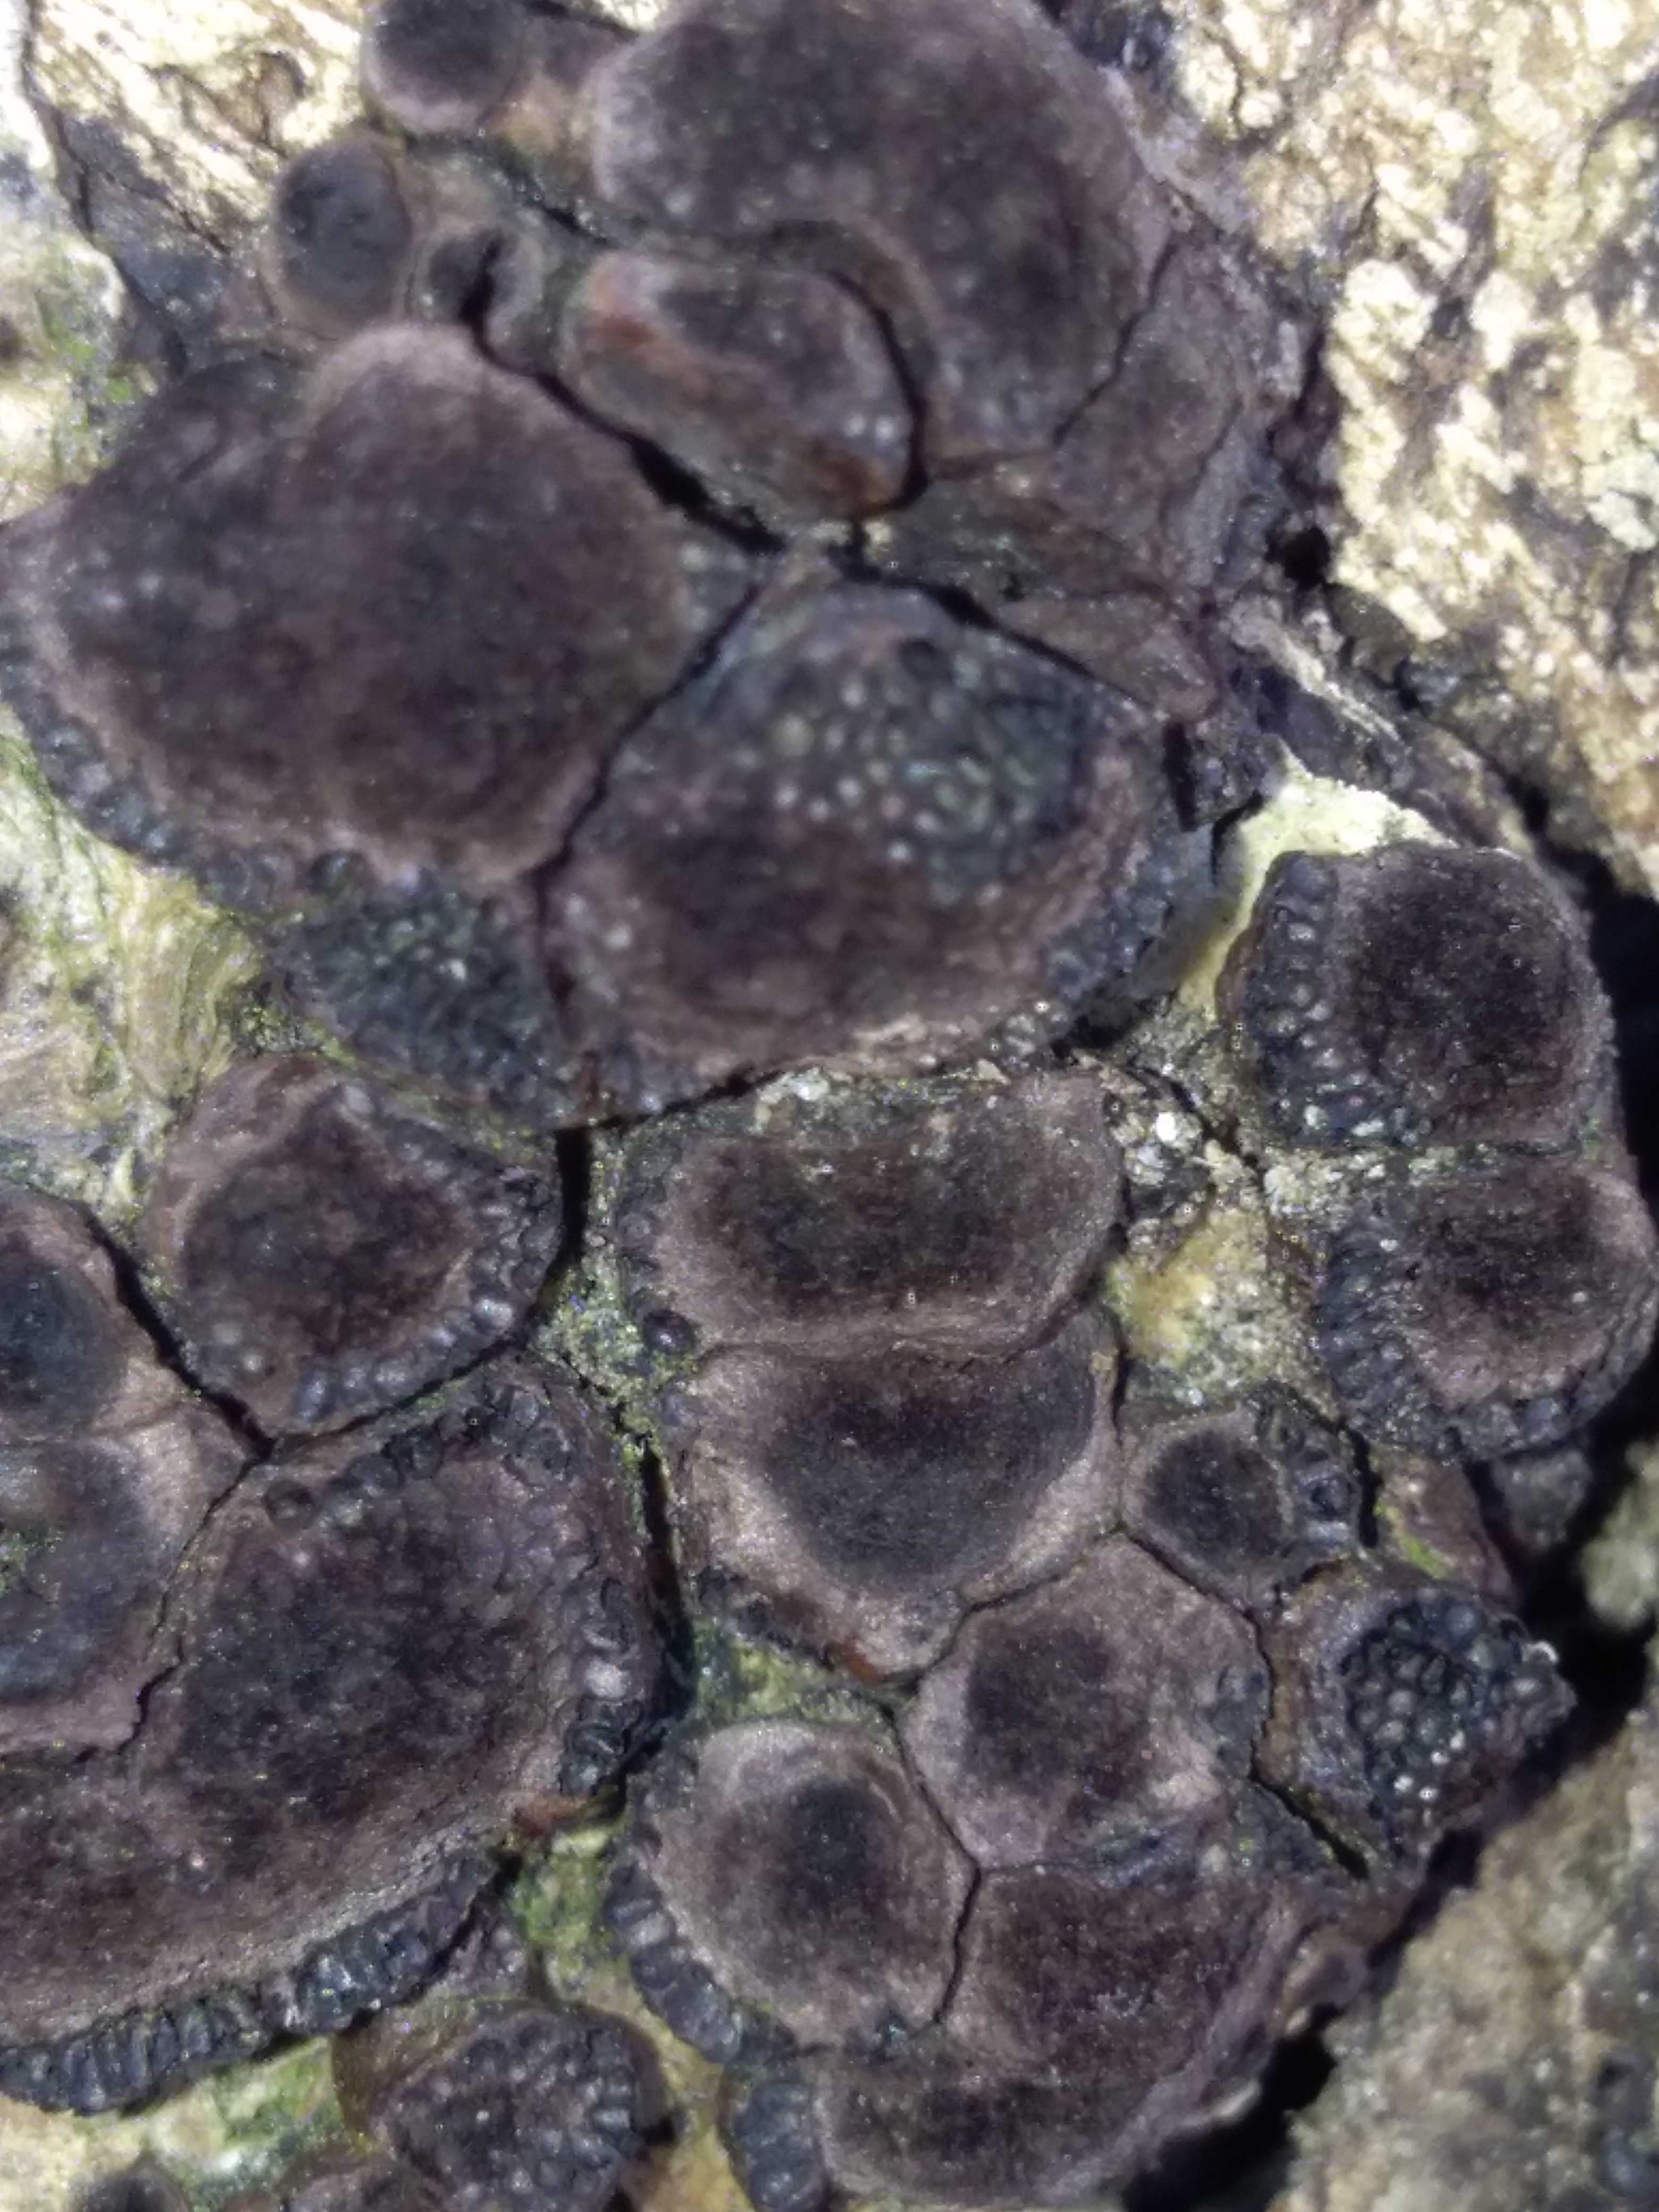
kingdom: Fungi
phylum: Ascomycota
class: Sordariomycetes
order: Xylariales
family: Hypoxylaceae
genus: Hypoxylon
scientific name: Hypoxylon fragiforme
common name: kuljordbær
